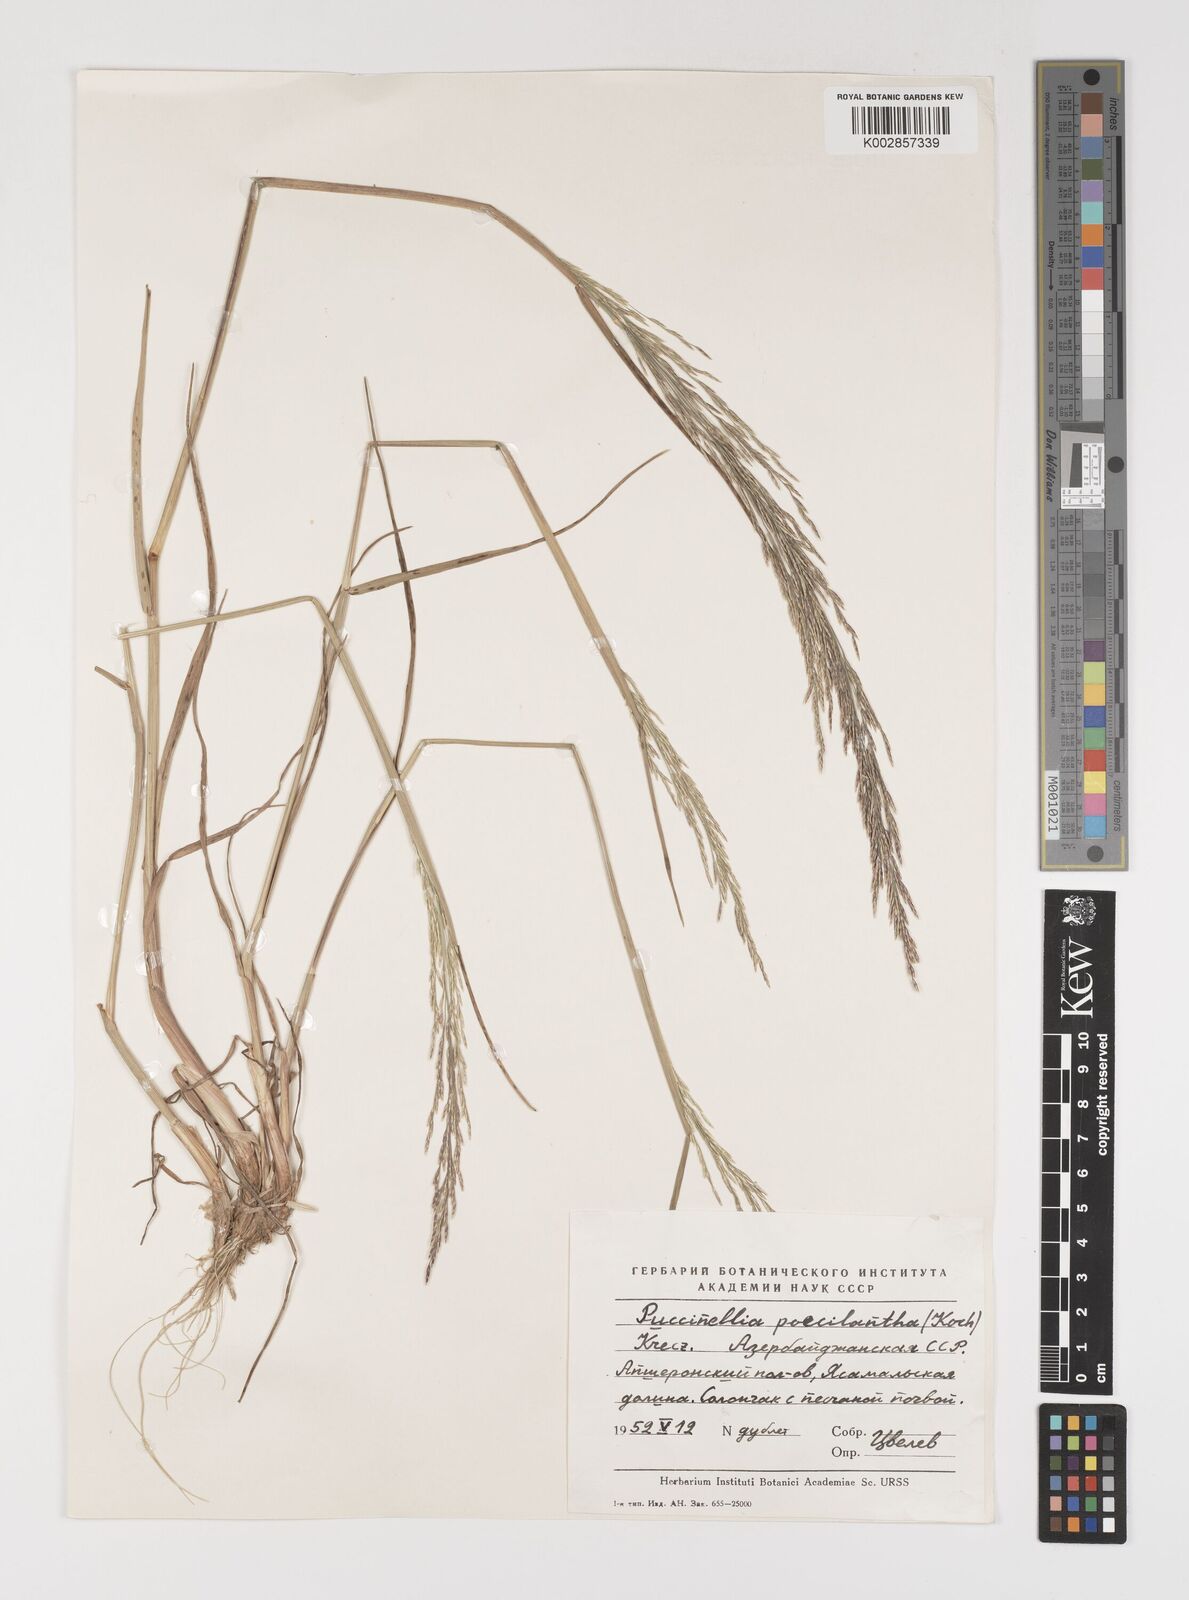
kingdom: Plantae
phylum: Tracheophyta
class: Liliopsida
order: Poales
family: Poaceae
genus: Puccinellia
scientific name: Puccinellia gigantea
